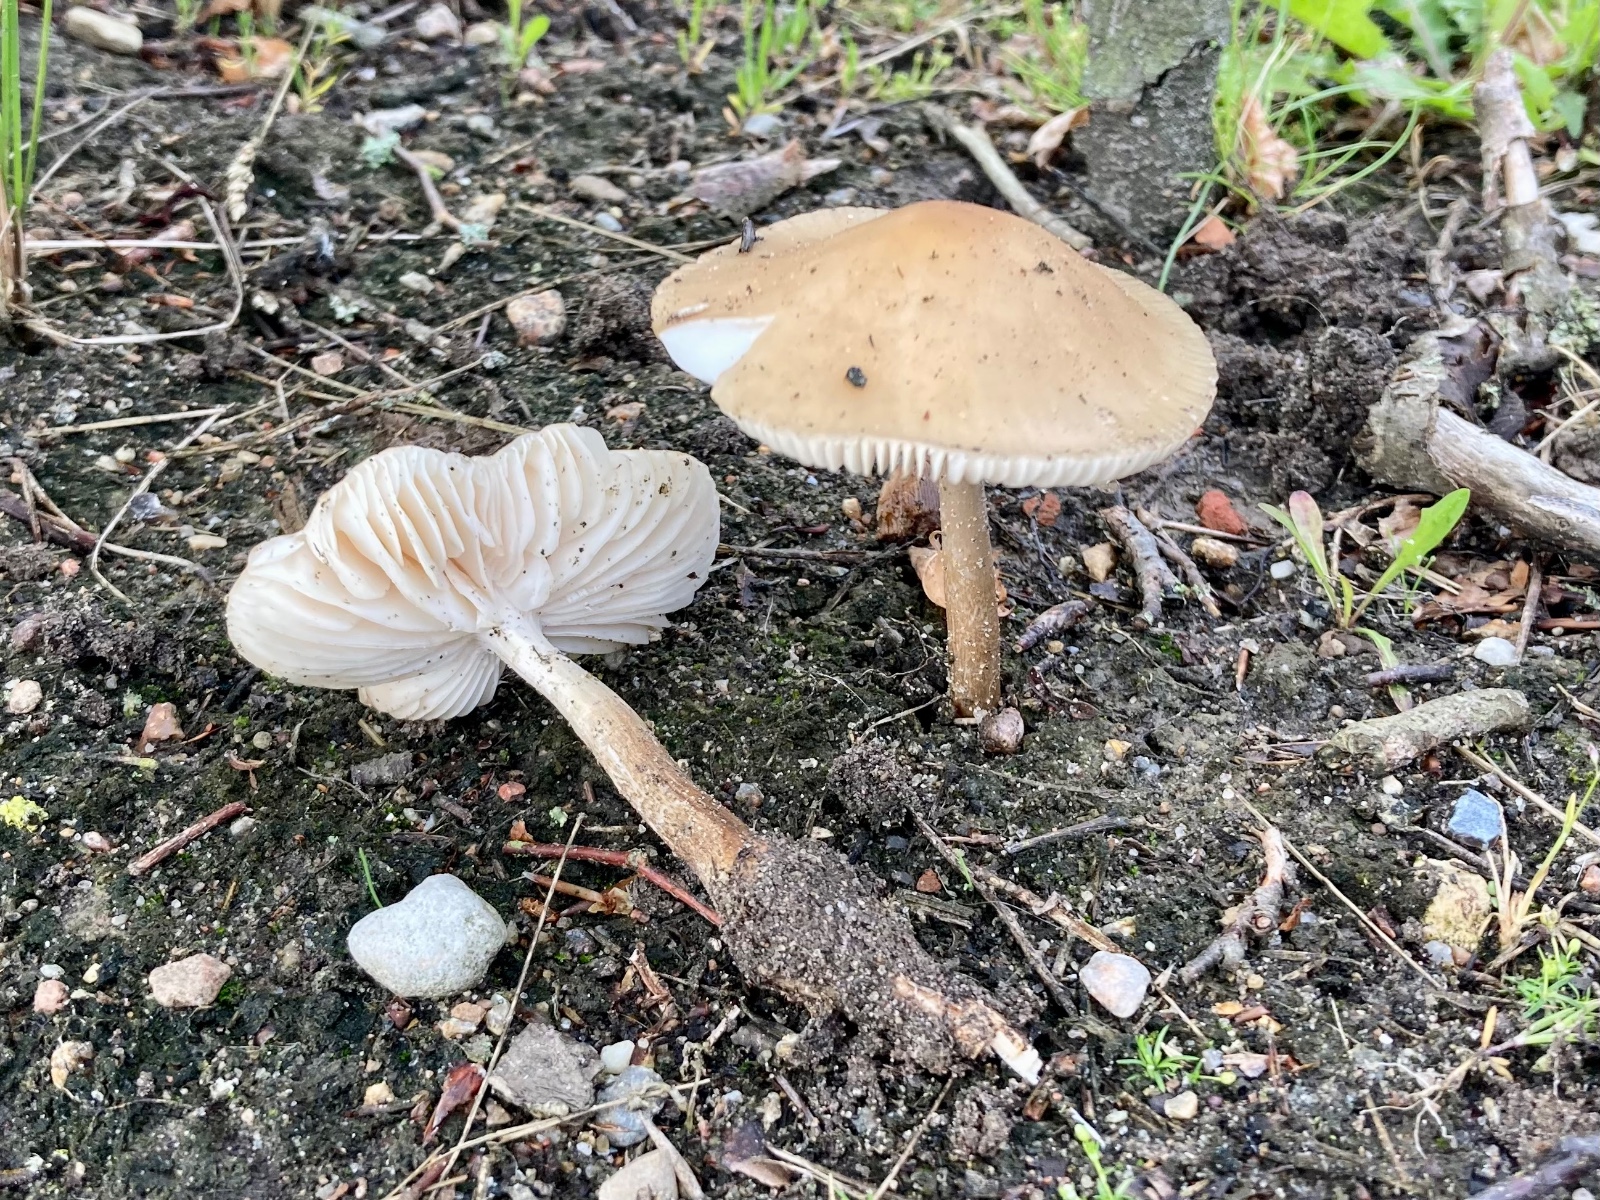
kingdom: Fungi
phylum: Basidiomycota
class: Agaricomycetes
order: Agaricales
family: Physalacriaceae
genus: Hymenopellis
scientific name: Hymenopellis radicata
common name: almindelig pælerodshat
